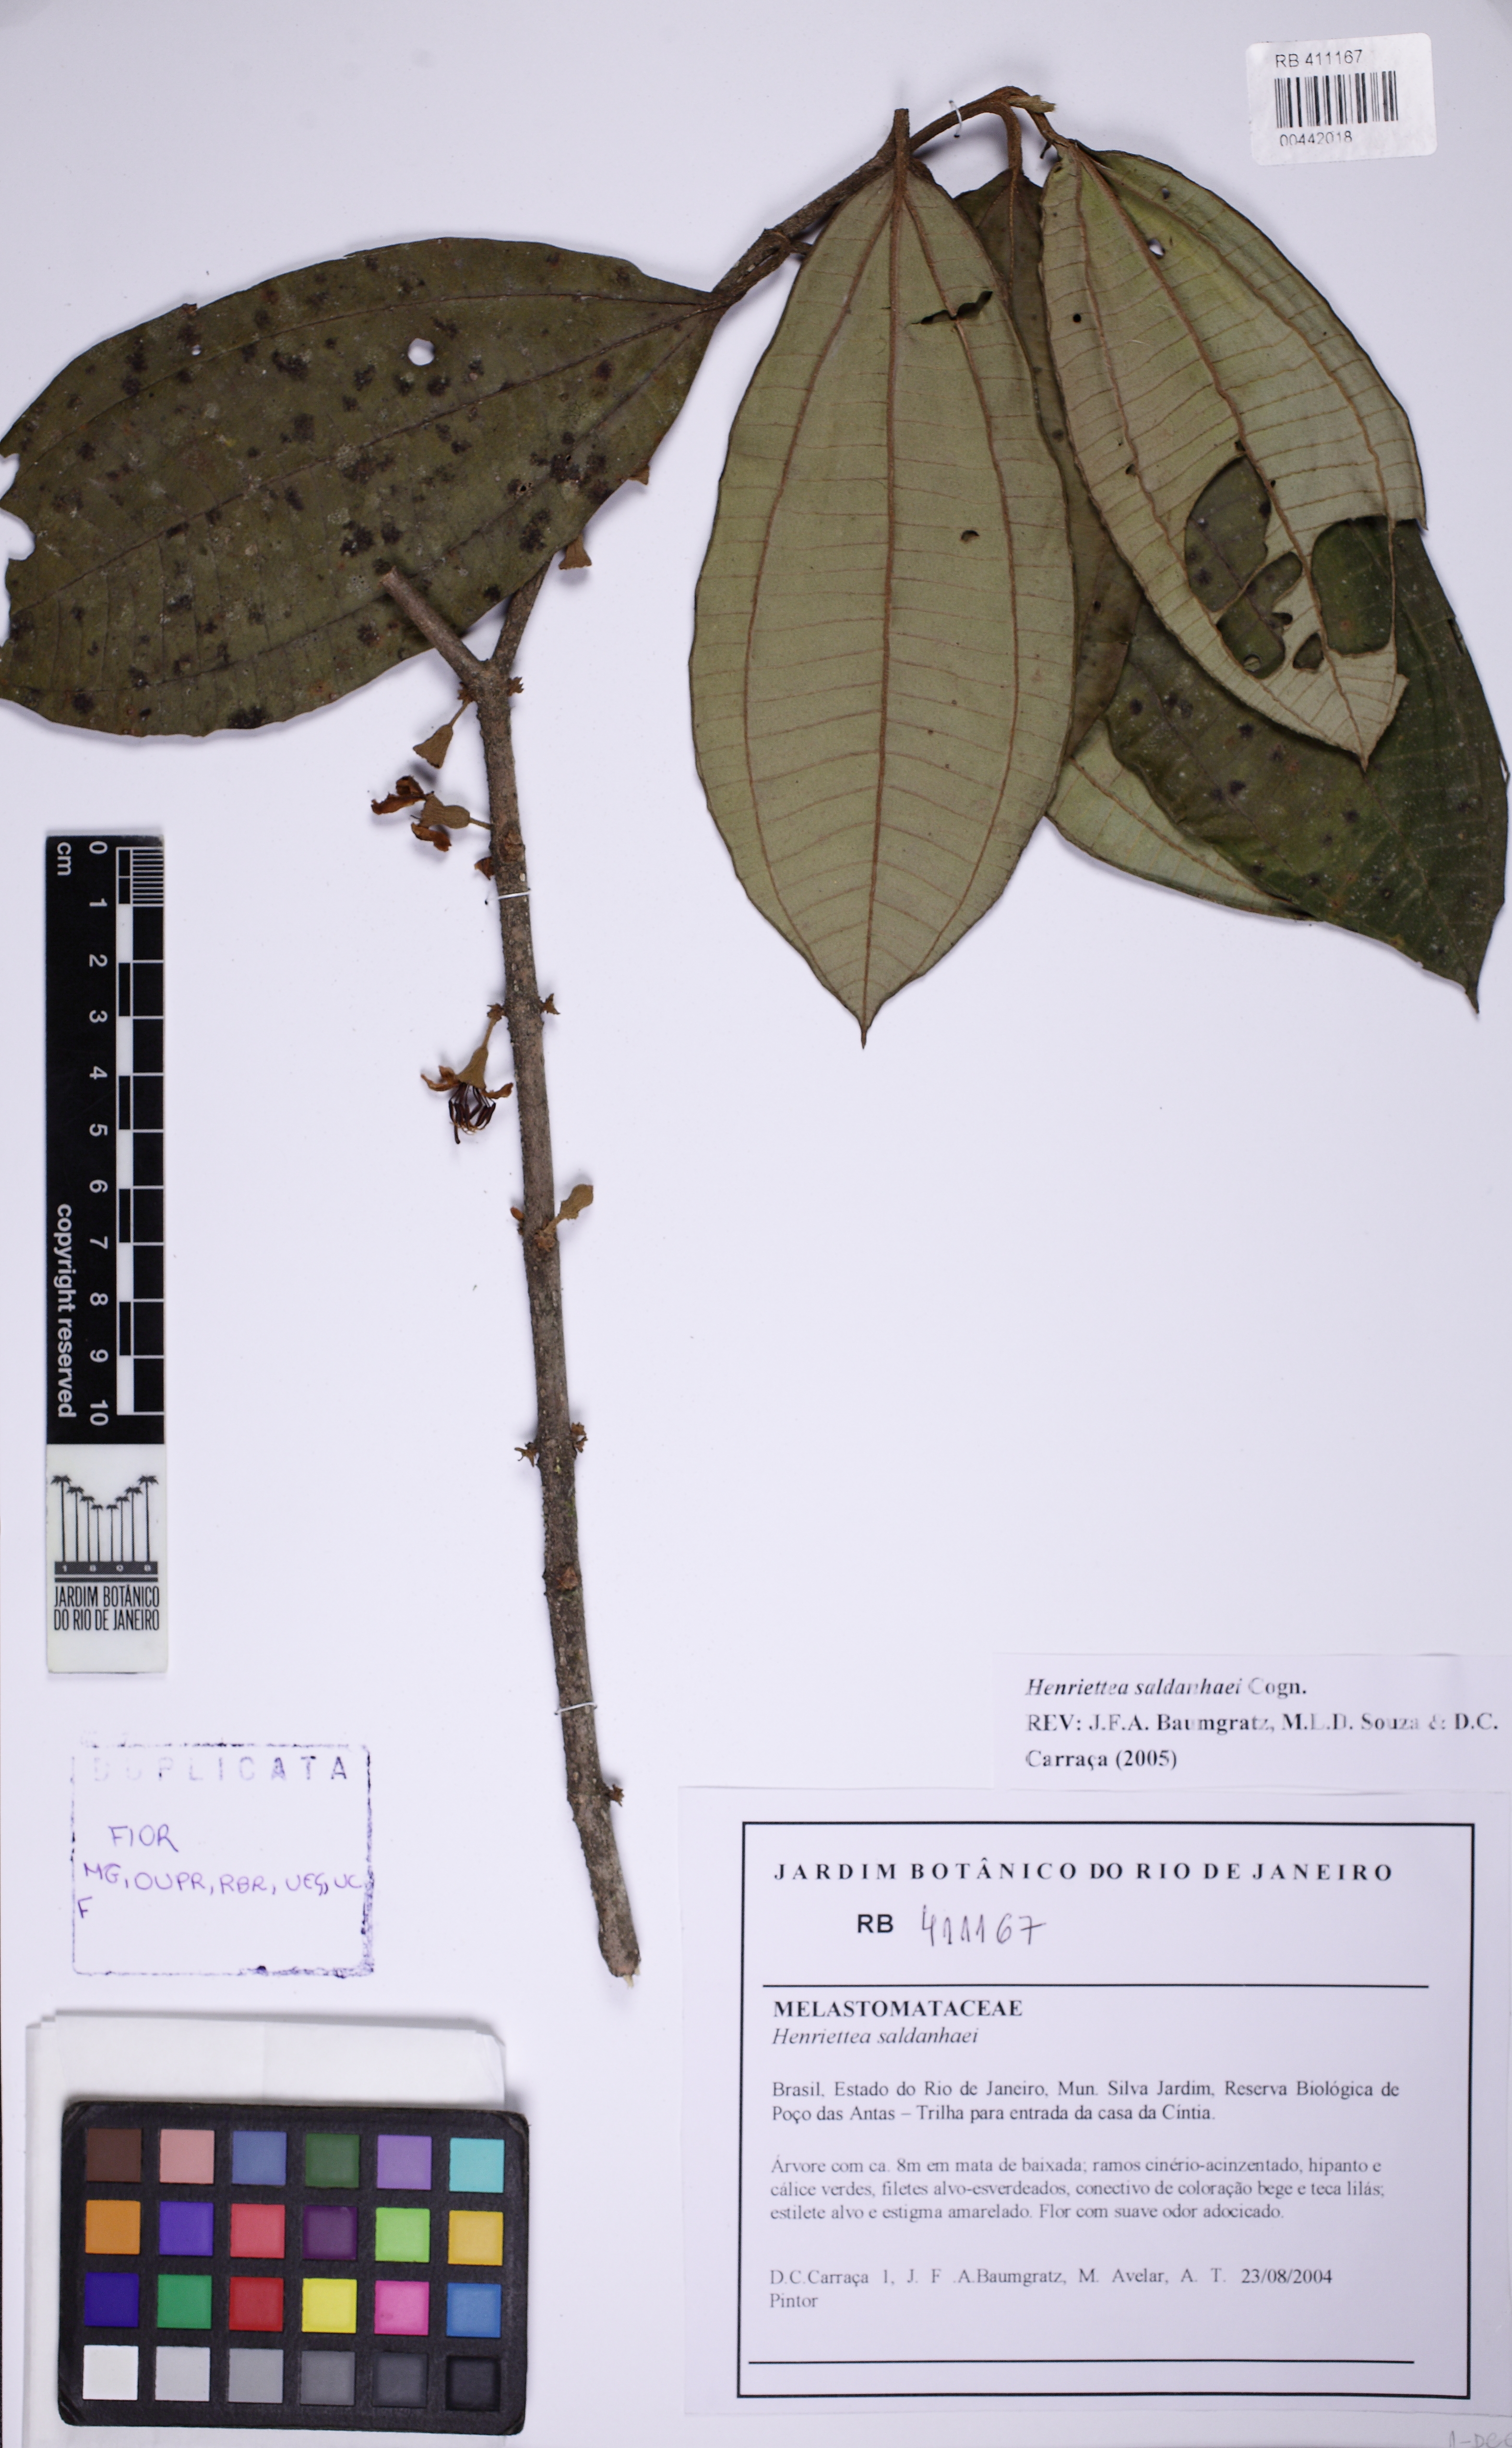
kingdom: Plantae
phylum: Tracheophyta
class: Magnoliopsida
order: Myrtales
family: Melastomataceae
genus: Henriettea
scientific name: Henriettea saldanhaei
